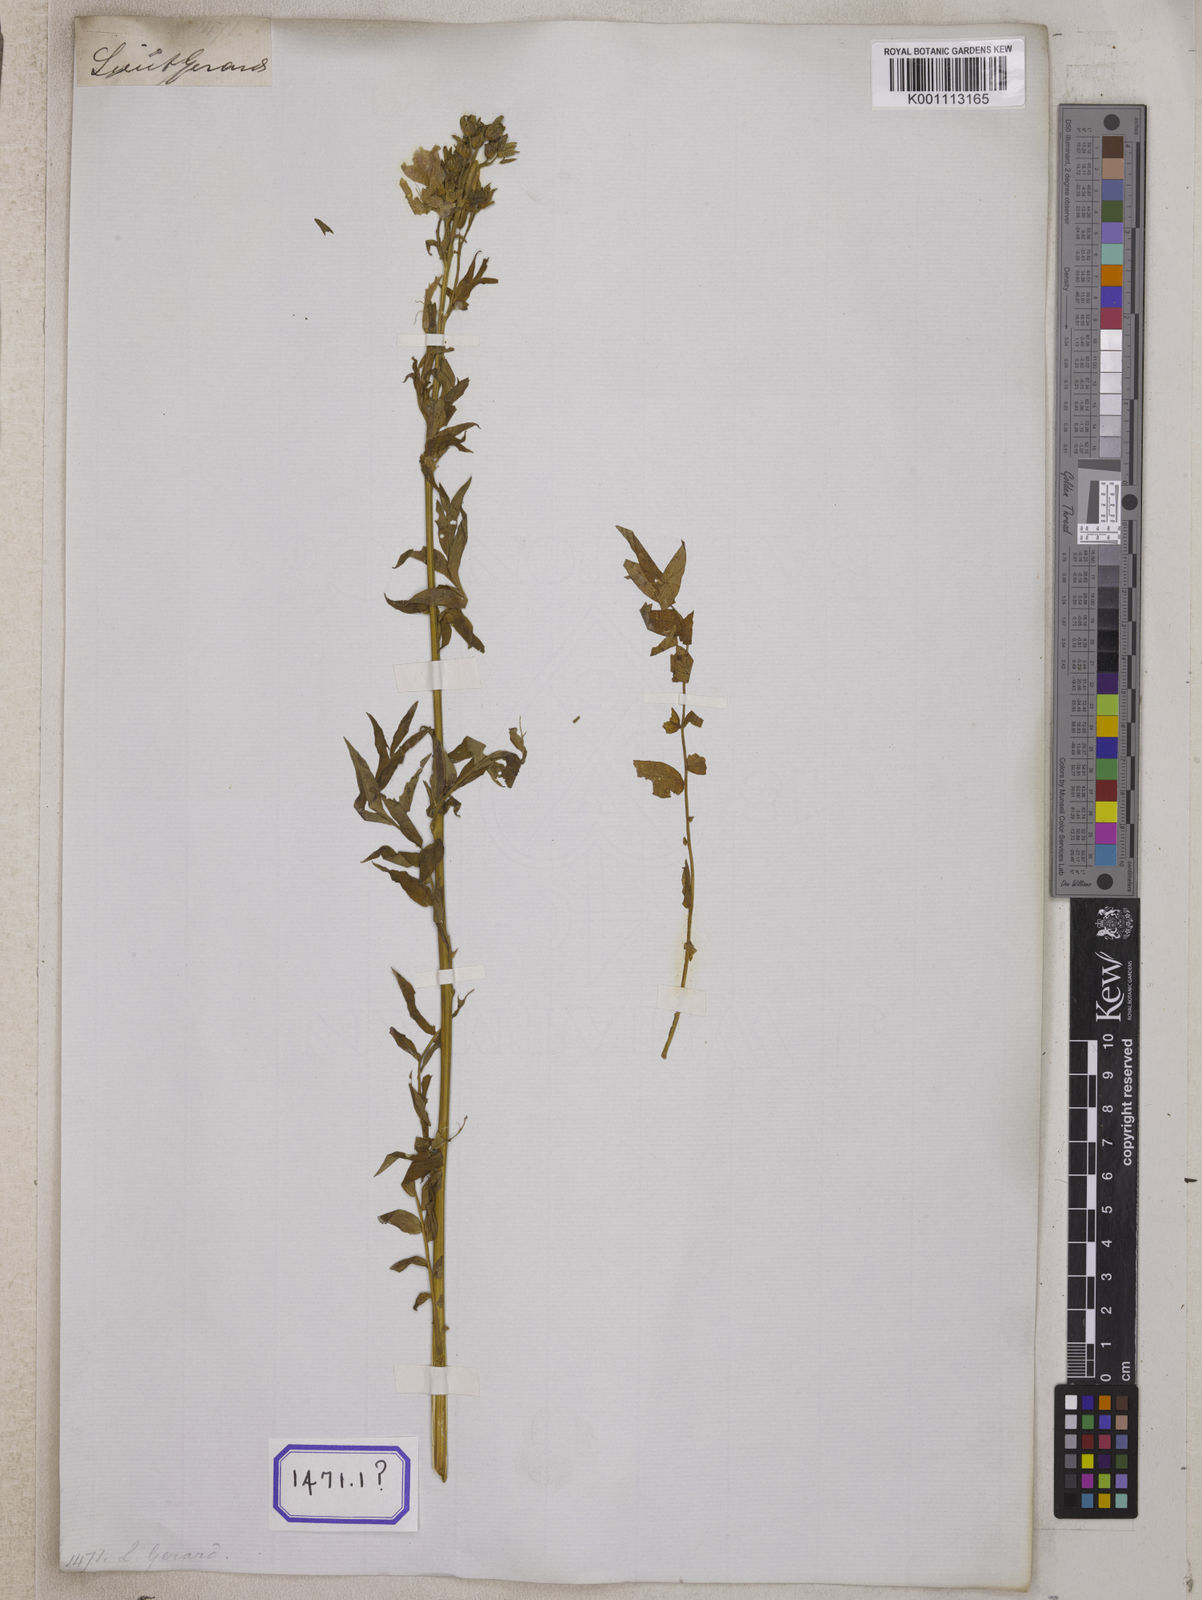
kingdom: Plantae
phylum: Tracheophyta
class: Magnoliopsida
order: Ericales
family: Polemoniaceae
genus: Polemonium
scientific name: Polemonium caeruleum
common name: Jacob's-ladder
